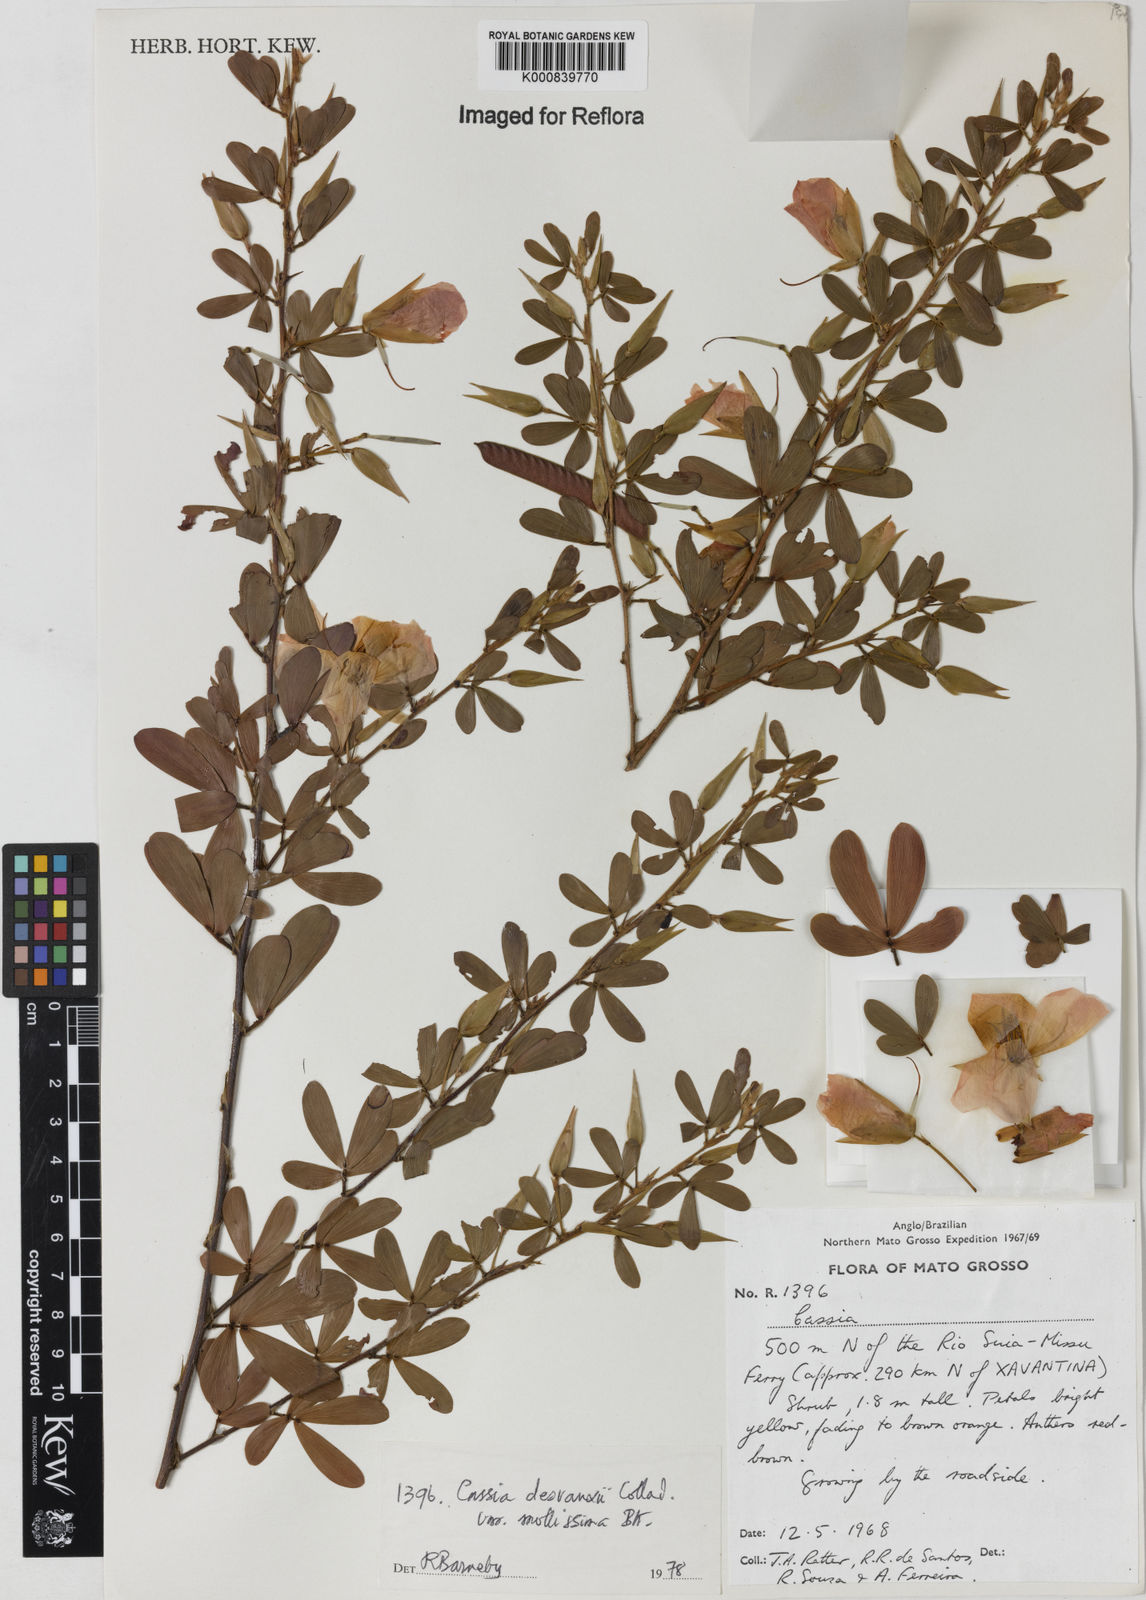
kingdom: Plantae
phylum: Tracheophyta
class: Magnoliopsida
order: Fabales
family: Fabaceae
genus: Chamaecrista
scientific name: Chamaecrista desvauxii
